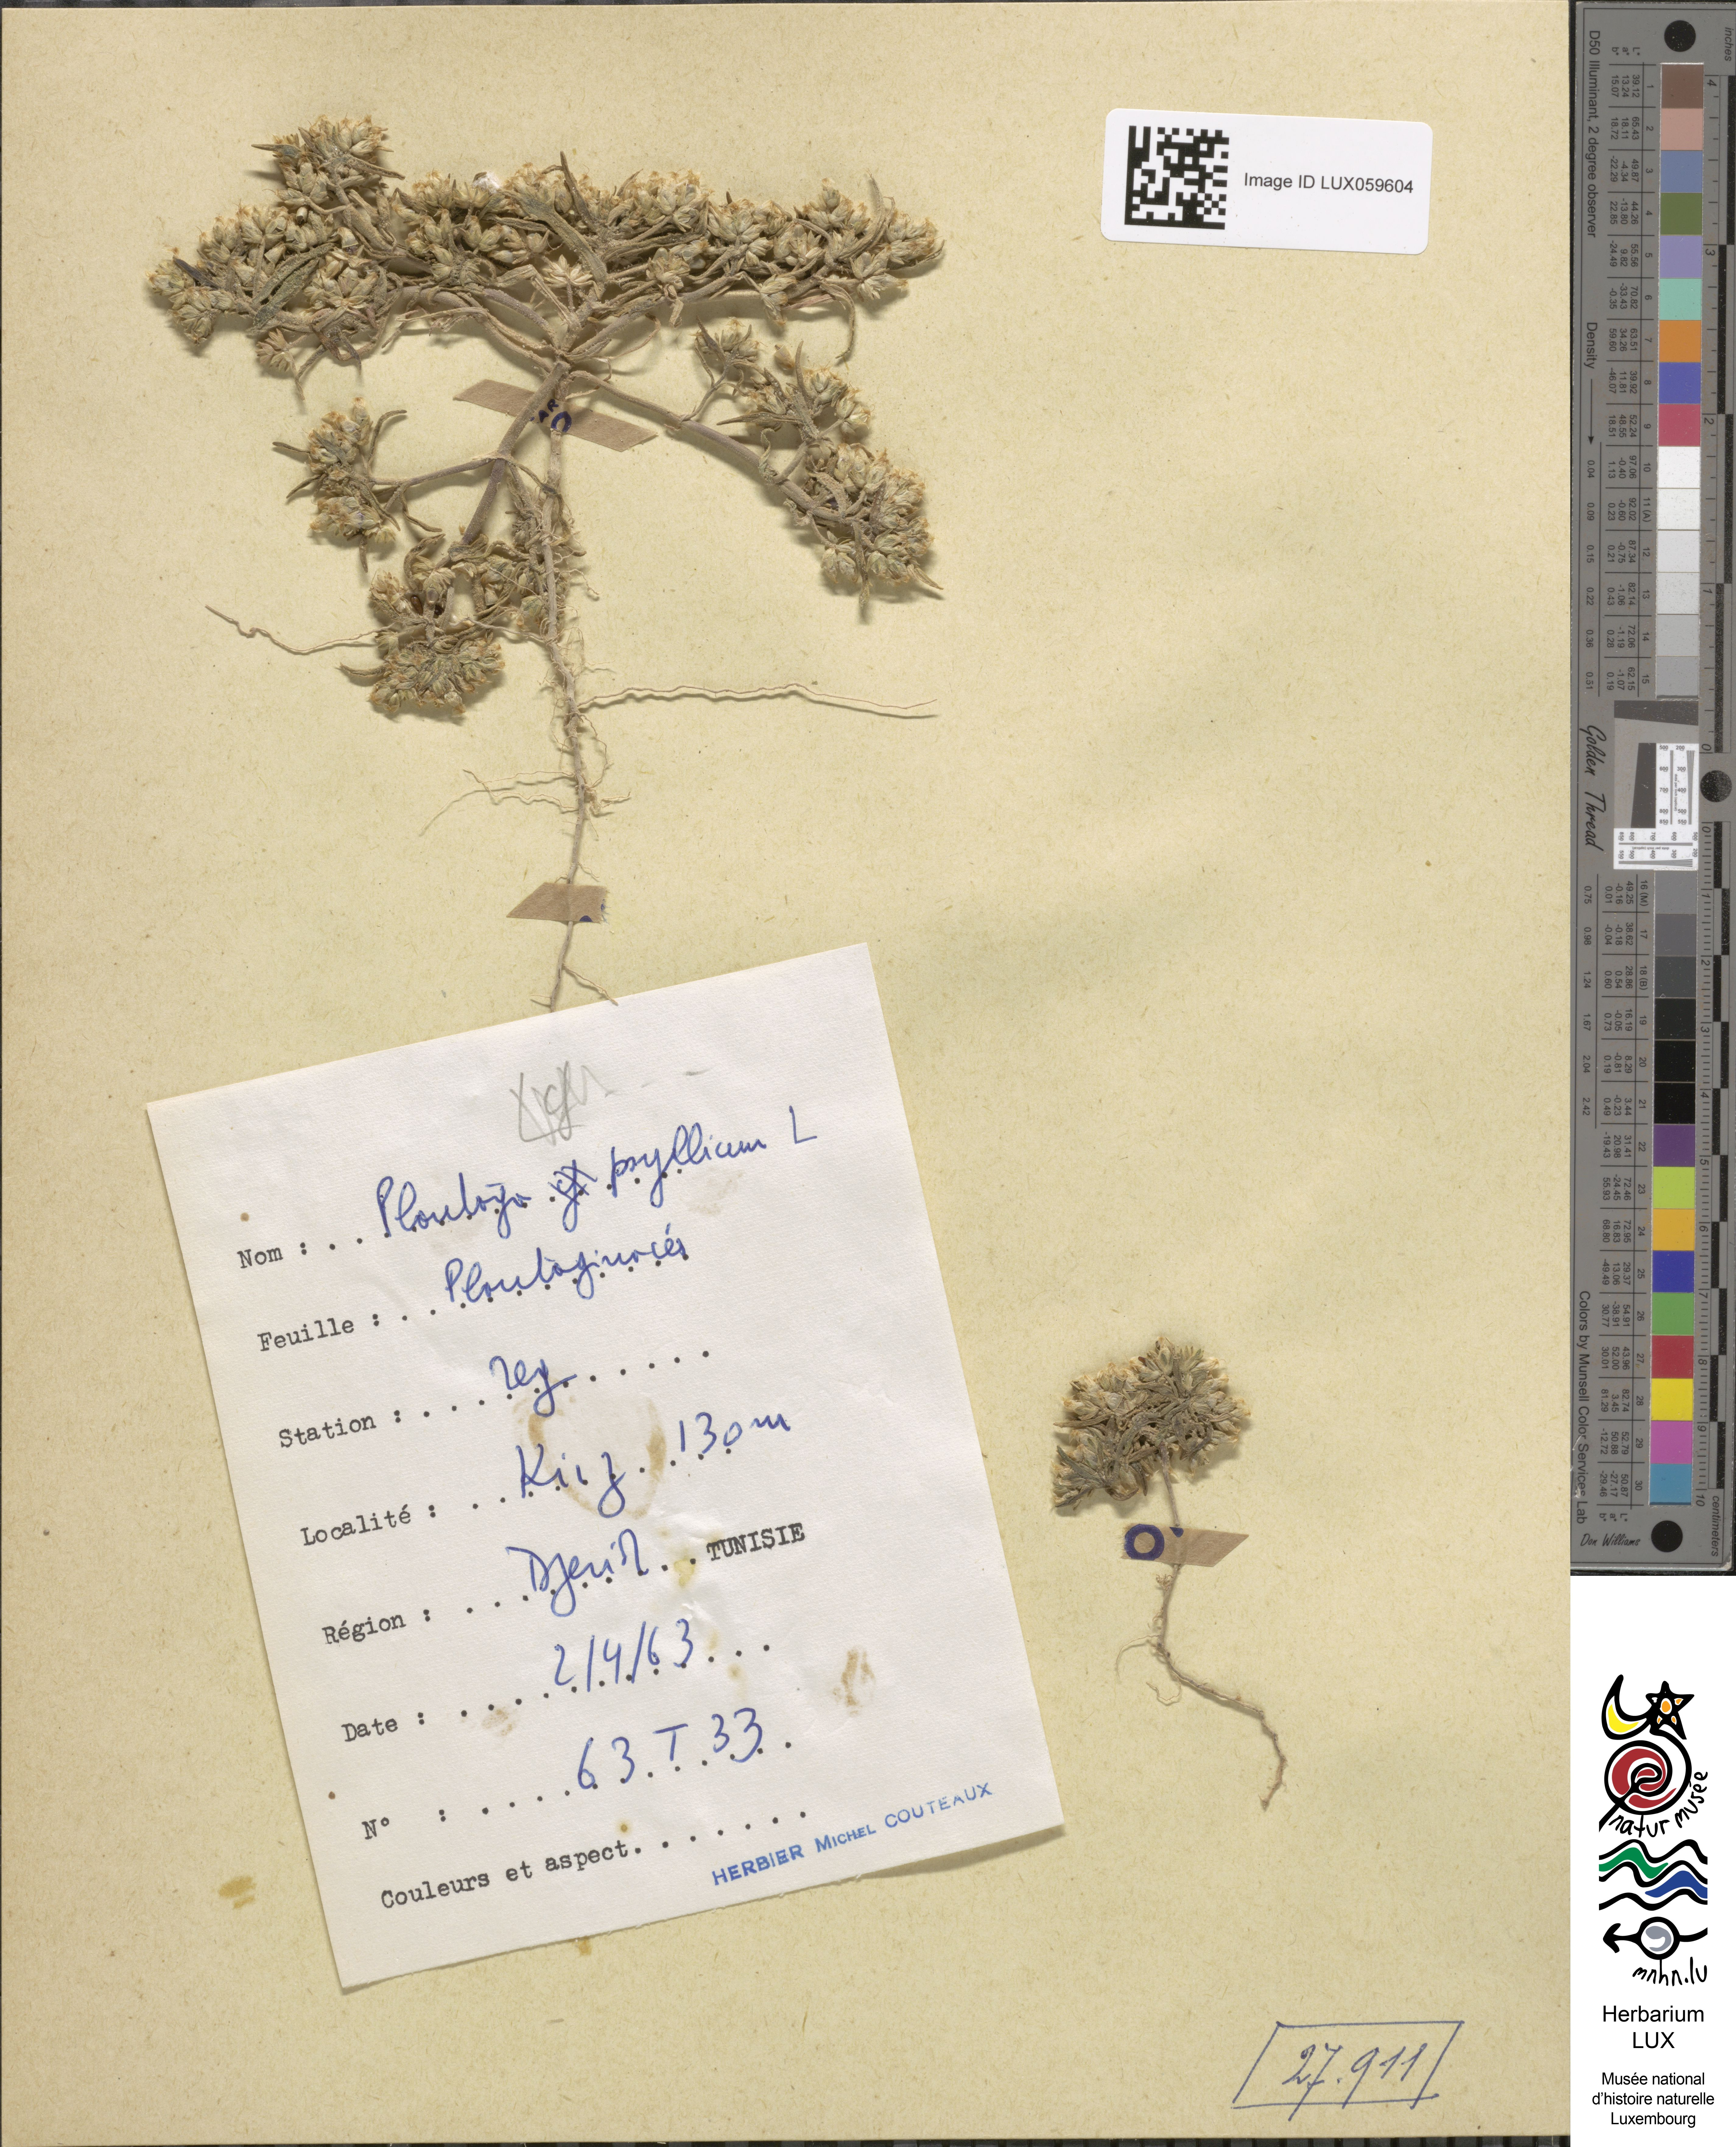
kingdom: Plantae
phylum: Tracheophyta
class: Magnoliopsida
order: Lamiales
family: Plantaginaceae
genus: Plantago
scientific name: Plantago afra
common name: Glandular plantain
